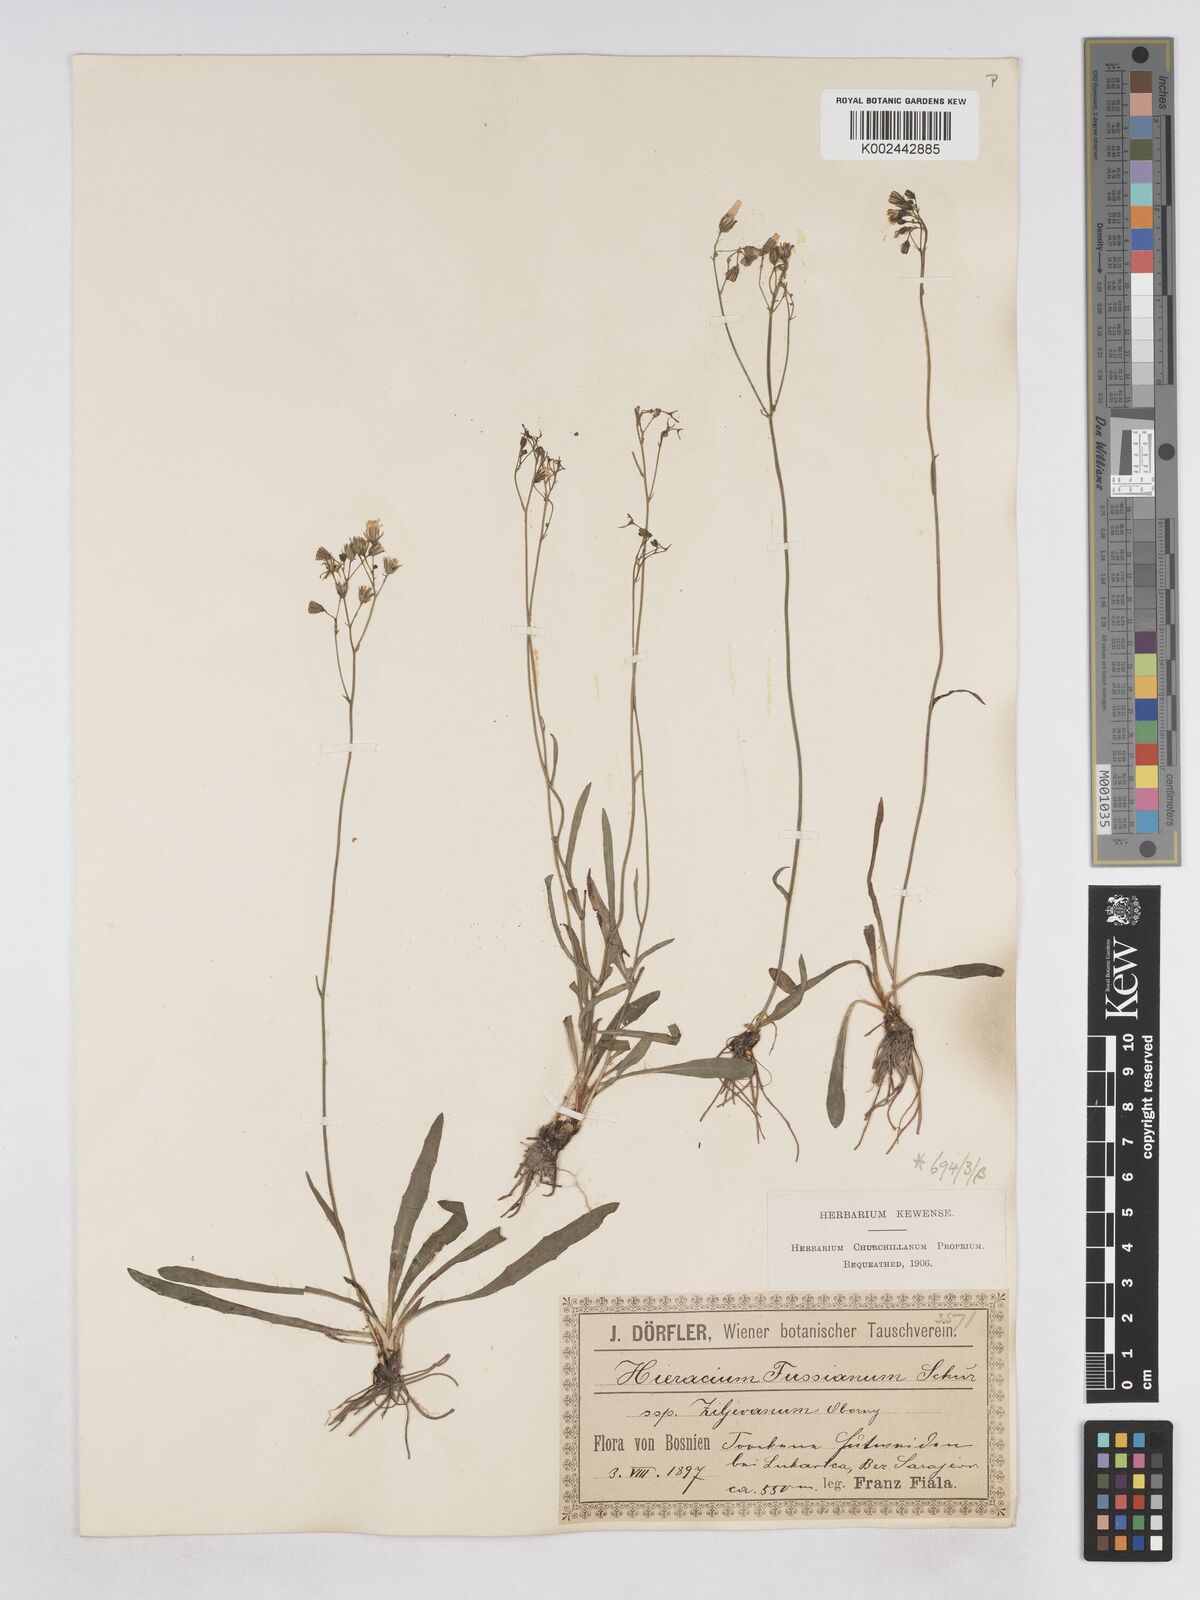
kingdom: Plantae
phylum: Tracheophyta
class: Magnoliopsida
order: Asterales
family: Asteraceae
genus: Pilosella
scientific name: Pilosella pavichii
